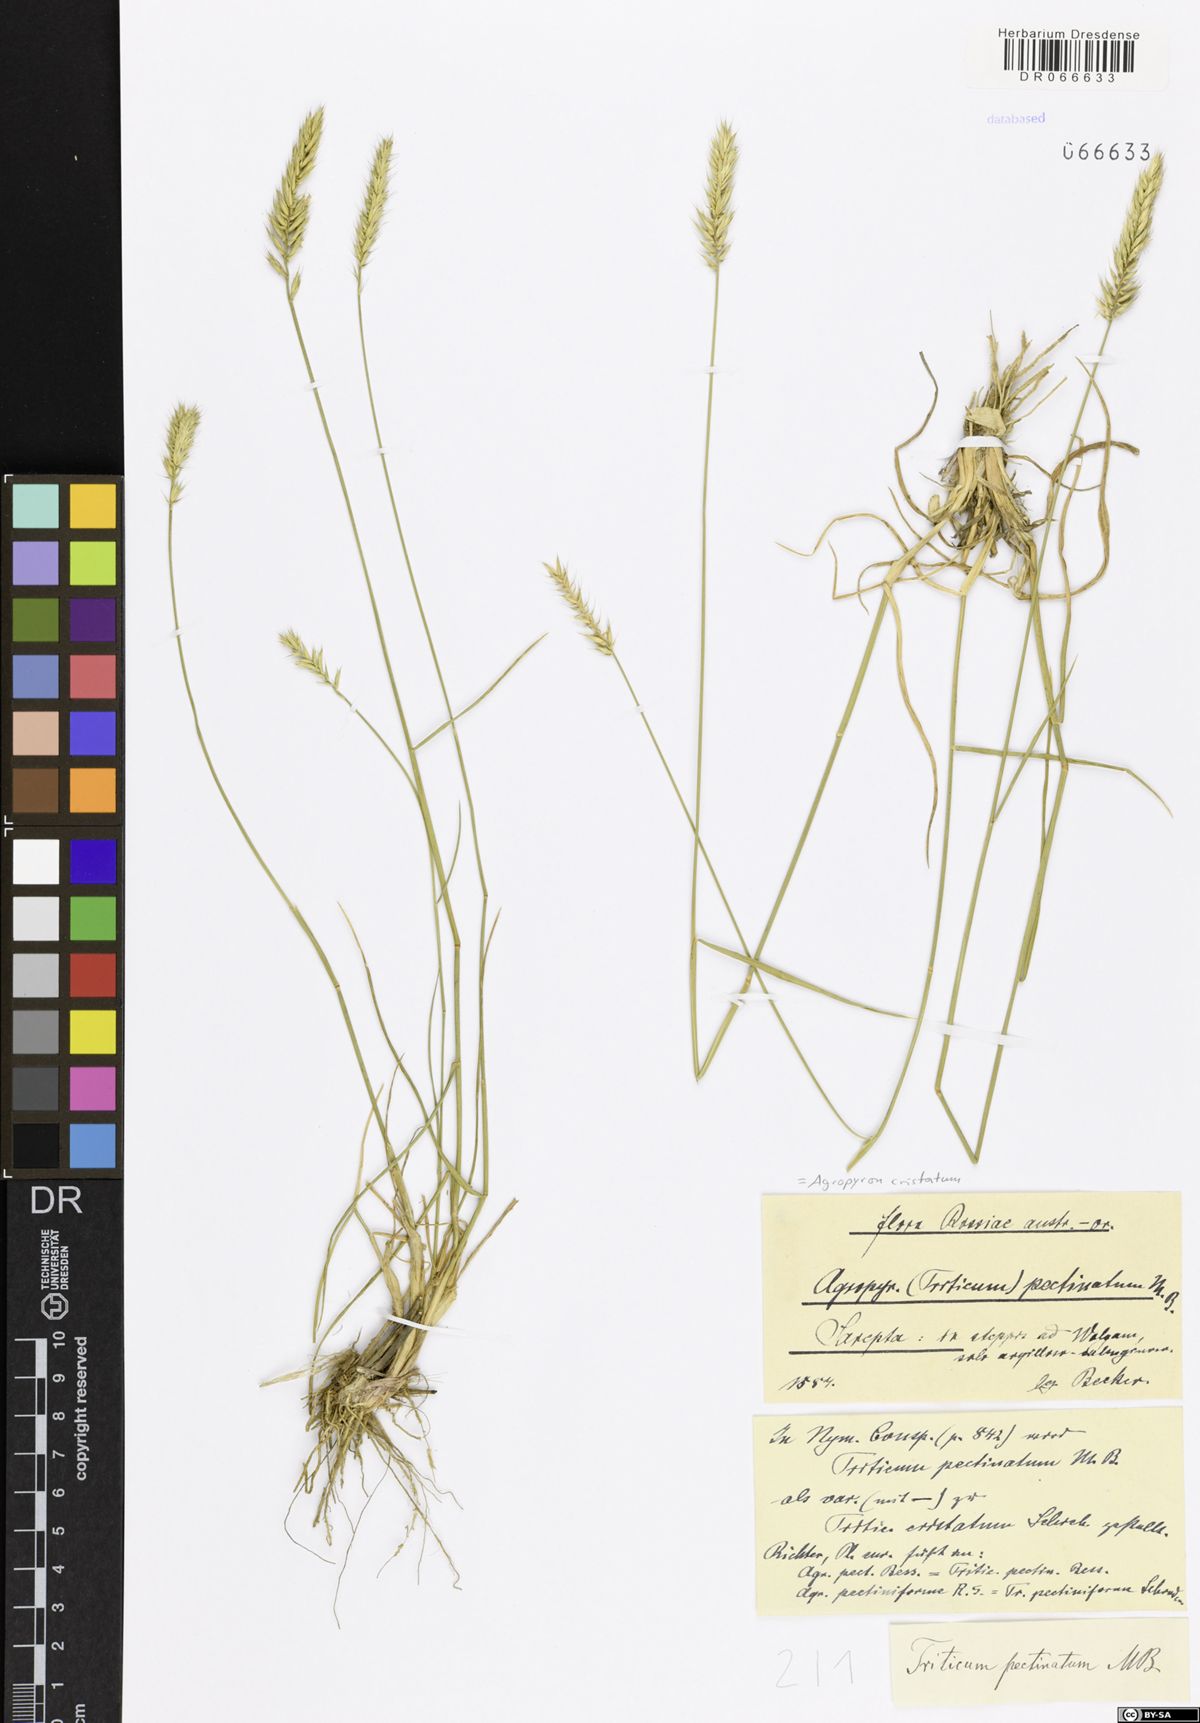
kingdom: Plantae
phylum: Tracheophyta
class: Liliopsida
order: Poales
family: Poaceae
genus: Agropyron
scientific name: Agropyron cristatum
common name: Crested wheatgrass
